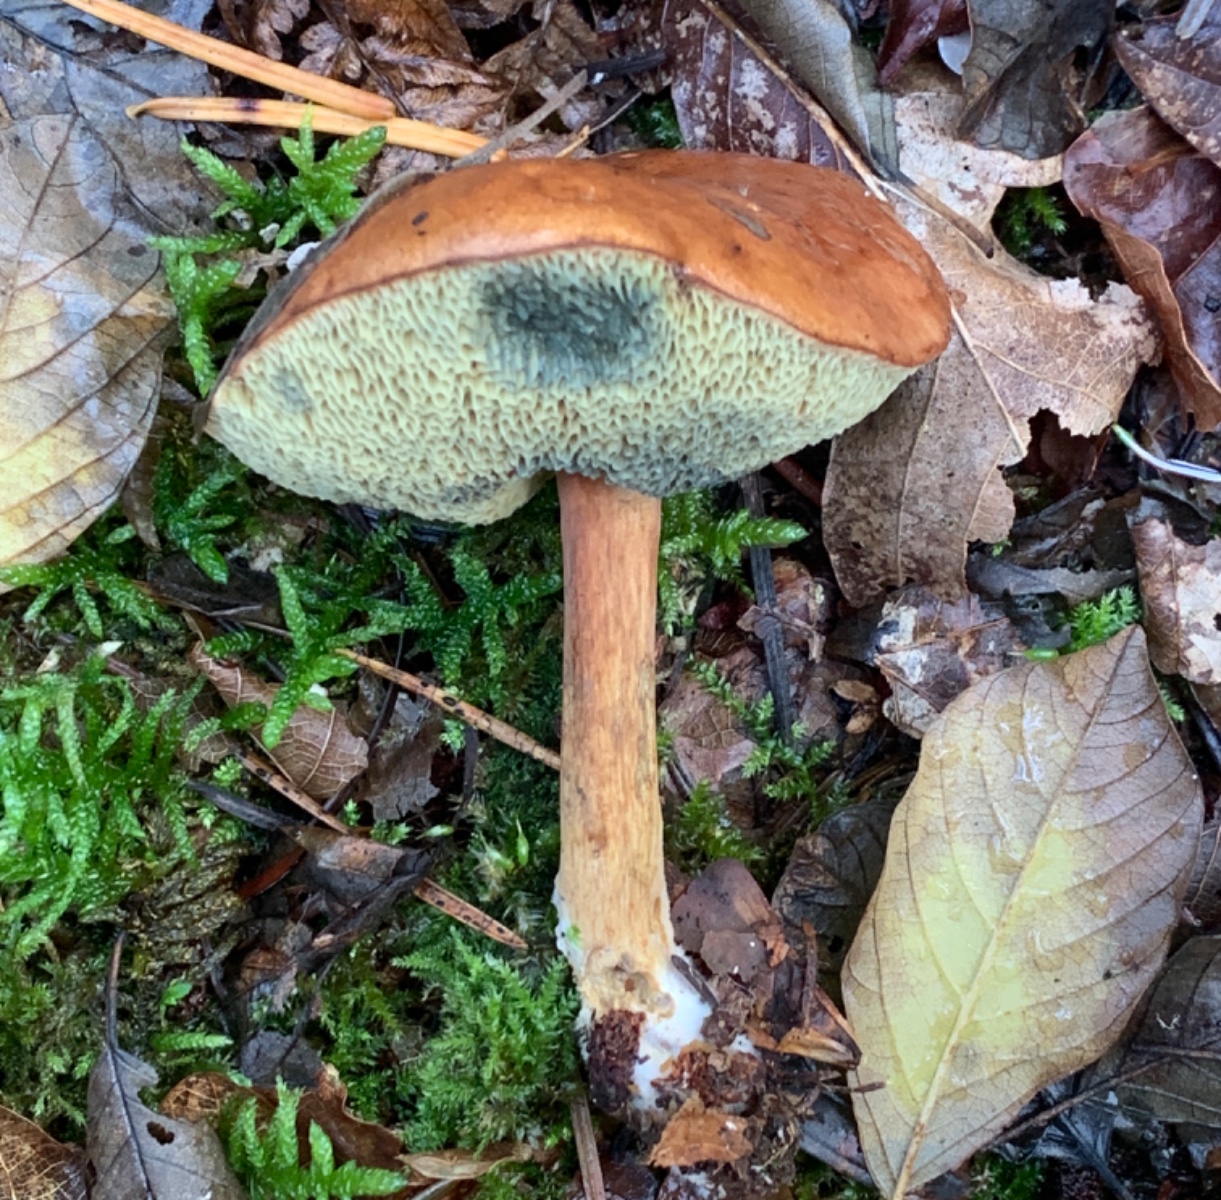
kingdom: Fungi
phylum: Basidiomycota
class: Agaricomycetes
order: Boletales
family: Boletaceae
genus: Imleria
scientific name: Imleria badia
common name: brunstokket rørhat
